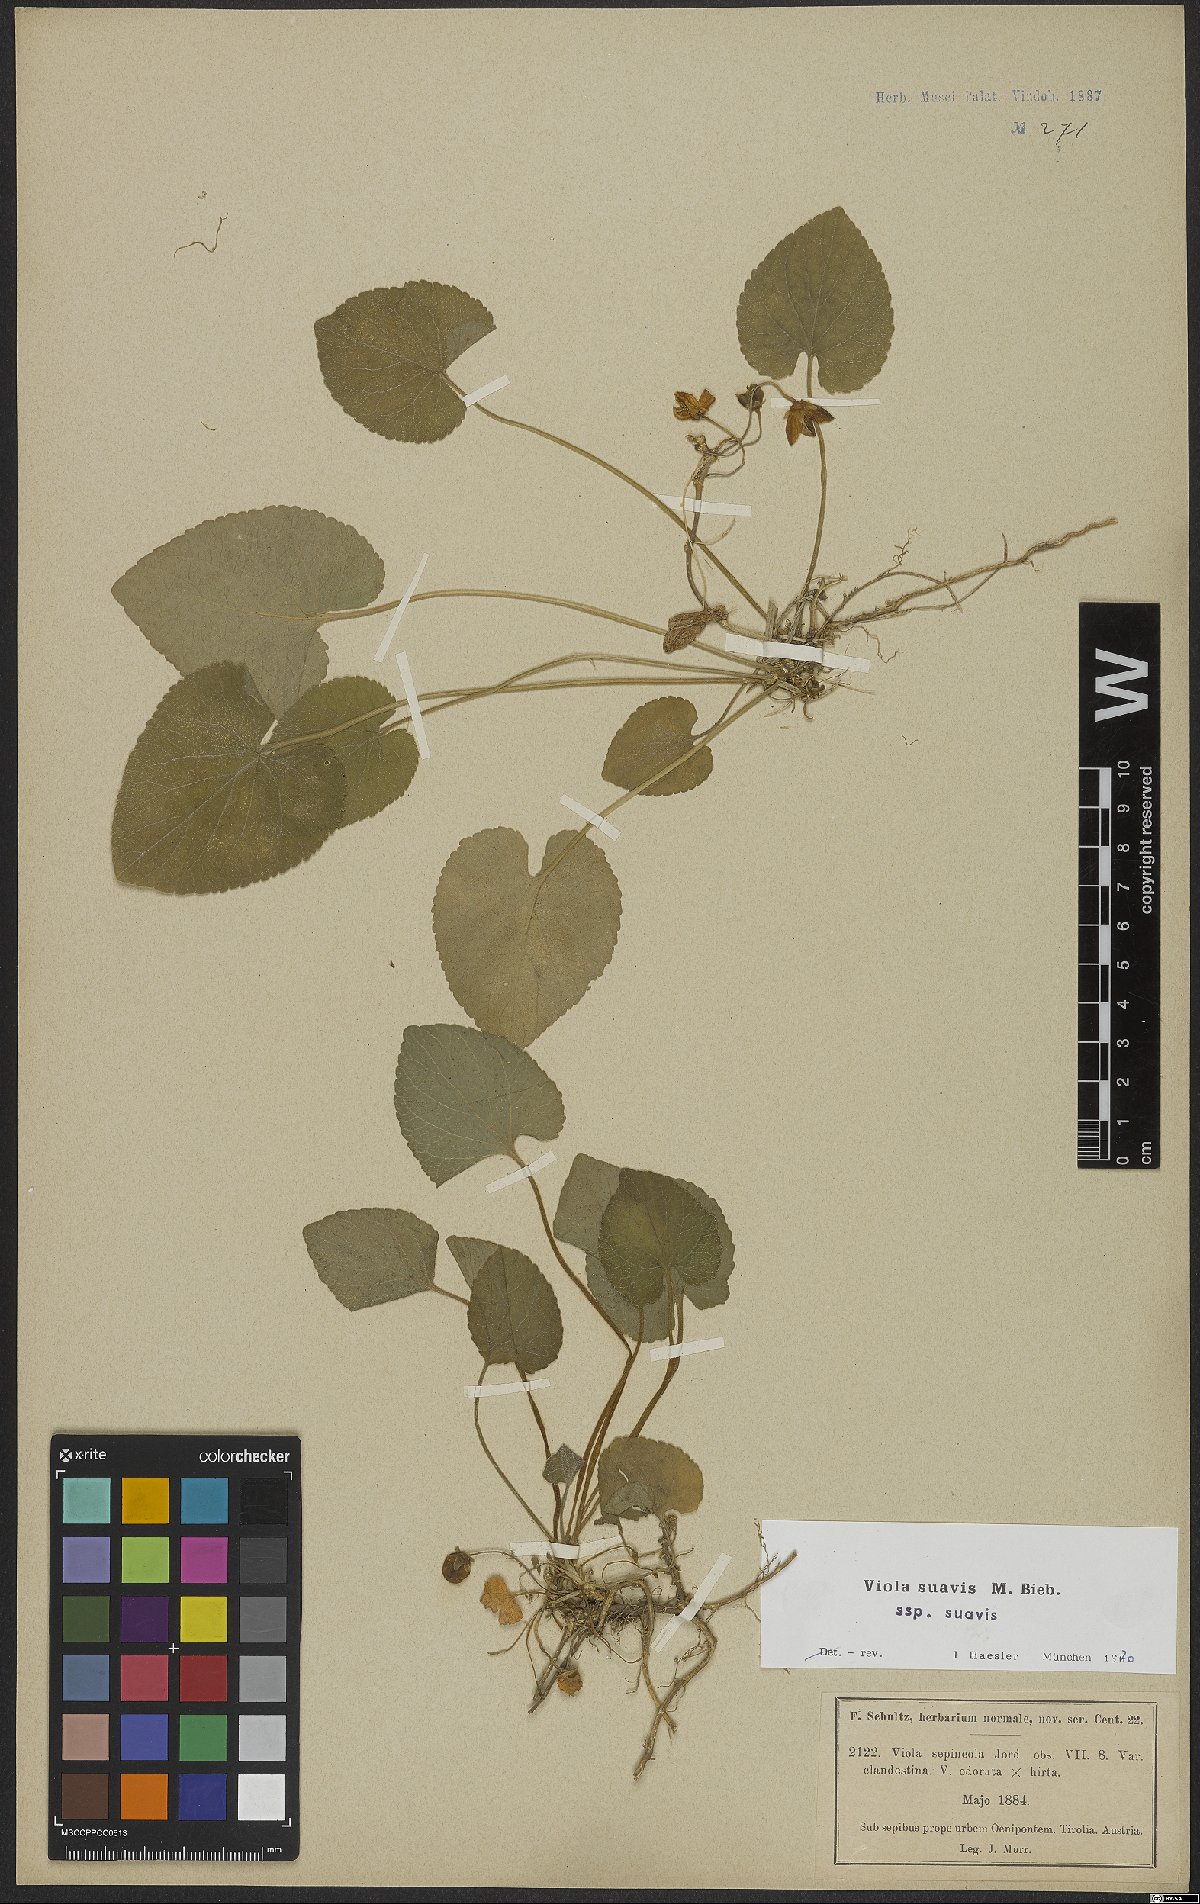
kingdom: Plantae
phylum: Tracheophyta
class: Magnoliopsida
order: Malpighiales
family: Violaceae
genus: Viola
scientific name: Viola suavis
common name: Russian violet
